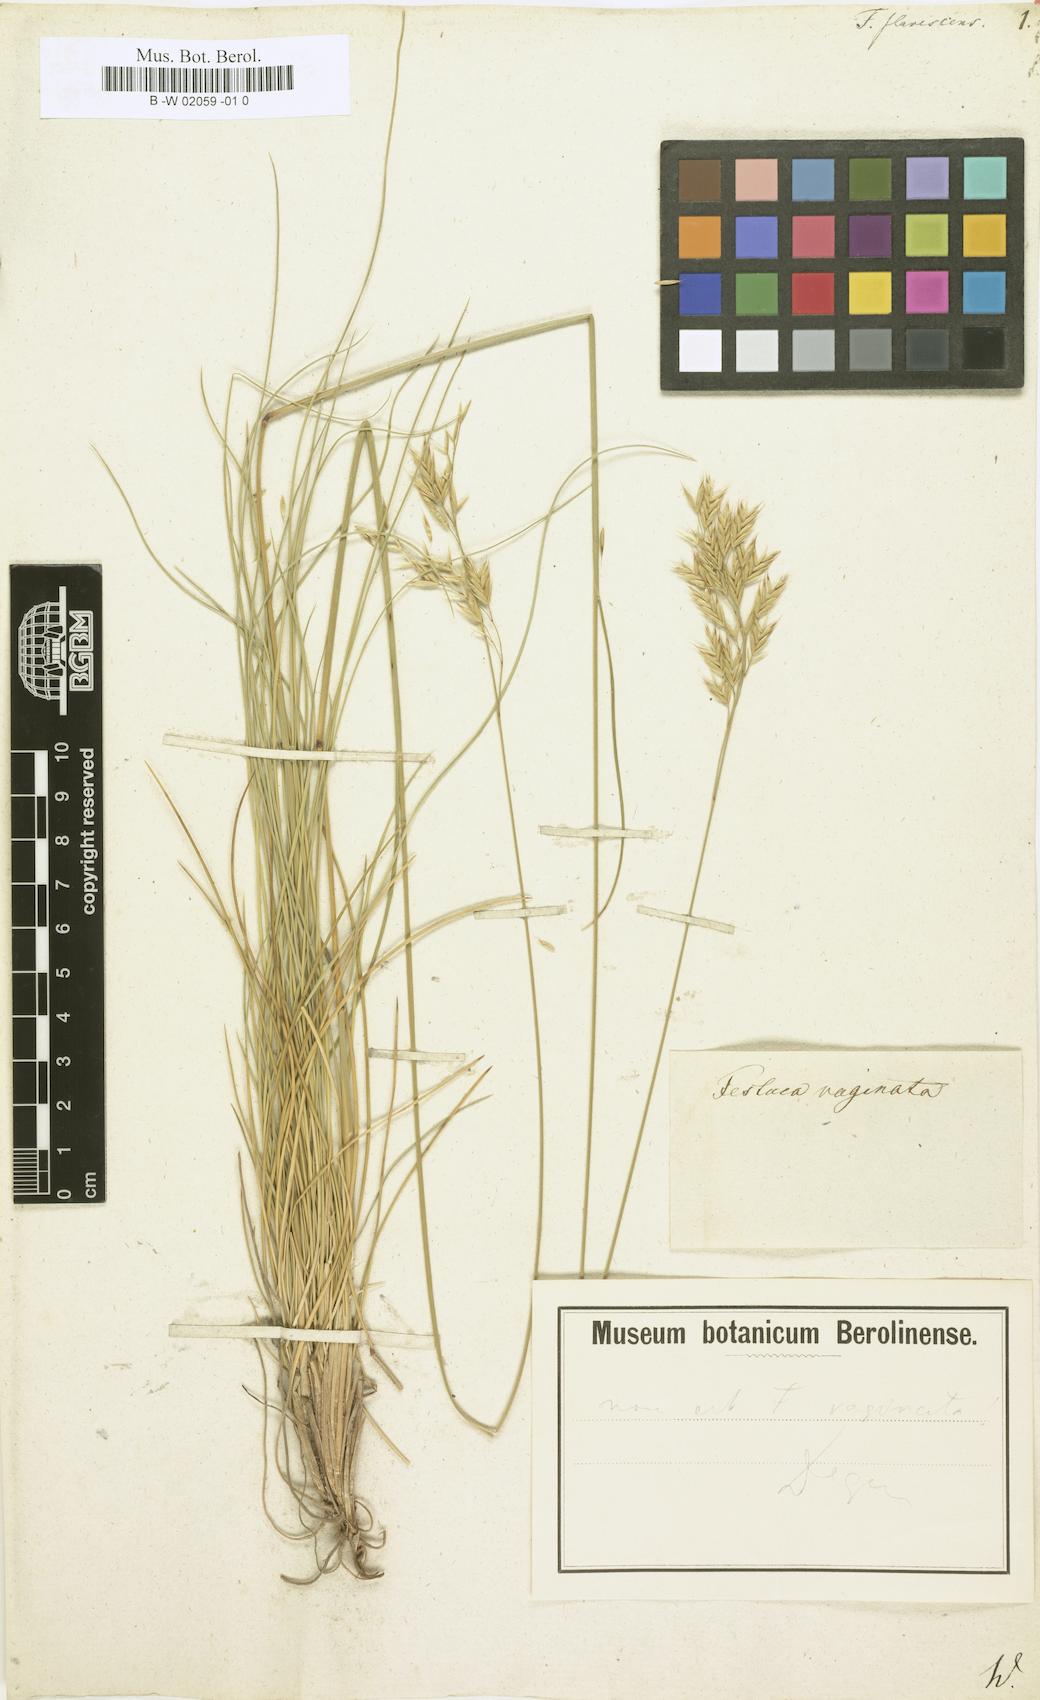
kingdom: Plantae
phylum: Tracheophyta
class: Liliopsida
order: Poales
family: Poaceae
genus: Festuca
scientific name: Festuca flavescens
